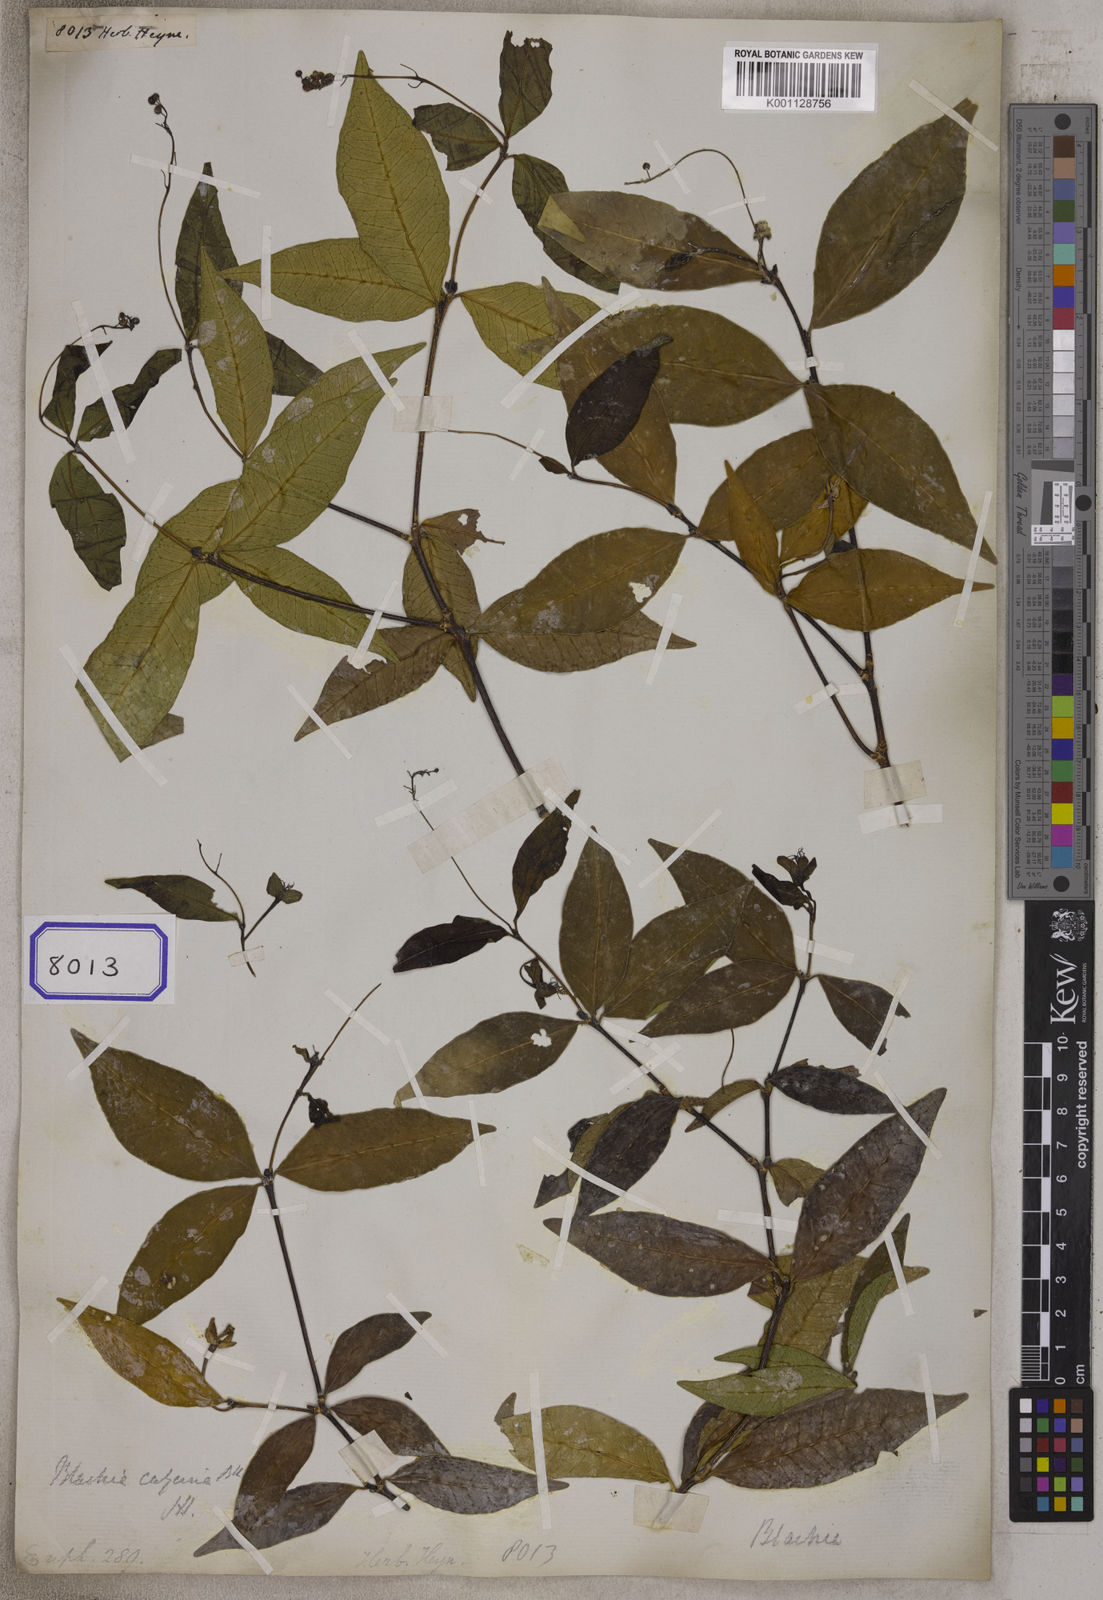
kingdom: Plantae
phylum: Tracheophyta
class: Magnoliopsida
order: Malpighiales
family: Euphorbiaceae
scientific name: Euphorbiaceae
